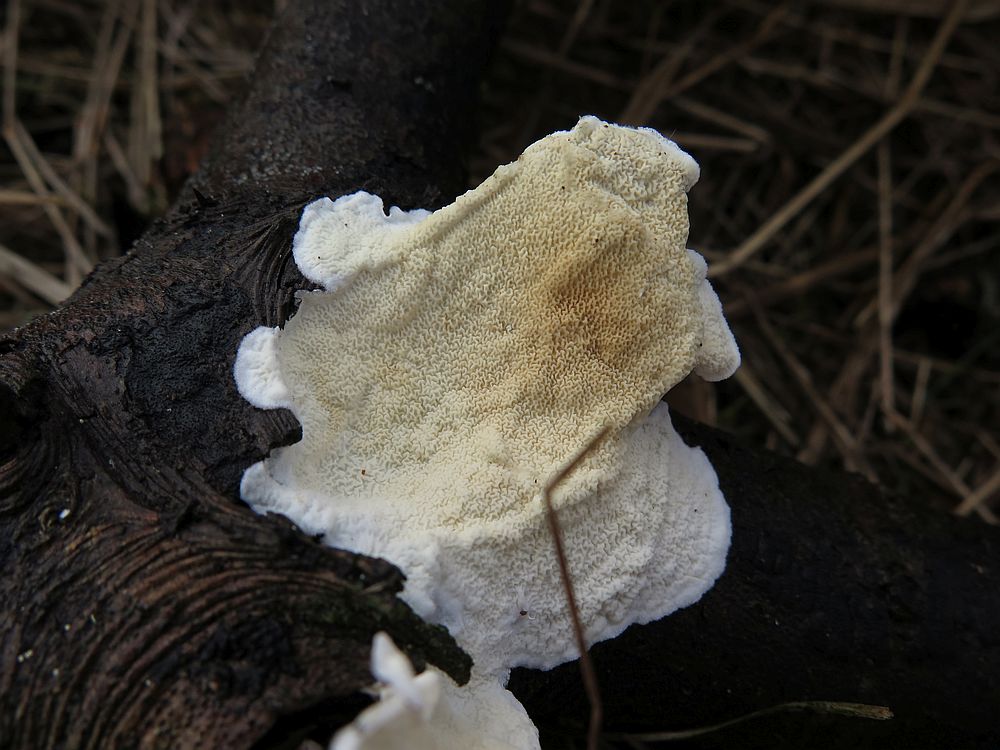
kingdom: Fungi
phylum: Basidiomycota
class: Agaricomycetes
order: Polyporales
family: Irpicaceae
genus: Byssomerulius
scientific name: Byssomerulius corium
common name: læder-åresvamp
